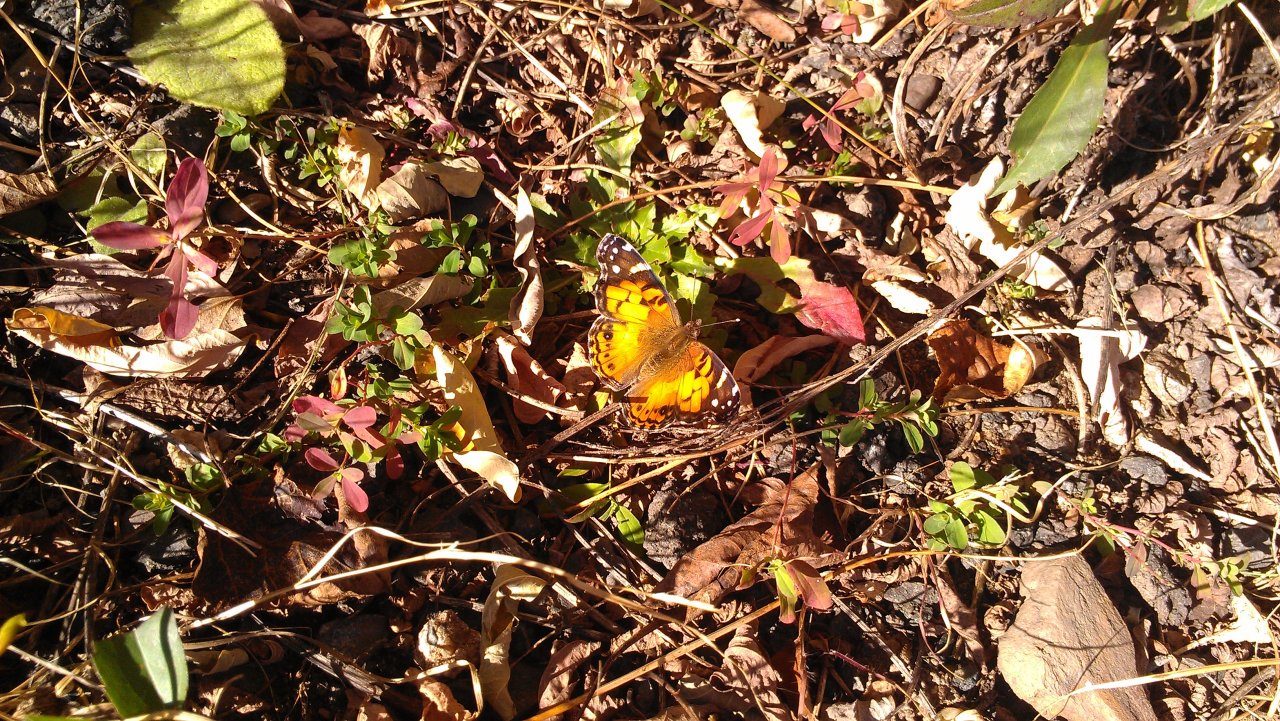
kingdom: Animalia
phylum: Arthropoda
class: Insecta
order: Lepidoptera
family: Nymphalidae
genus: Vanessa
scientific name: Vanessa virginiensis
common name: American Lady
